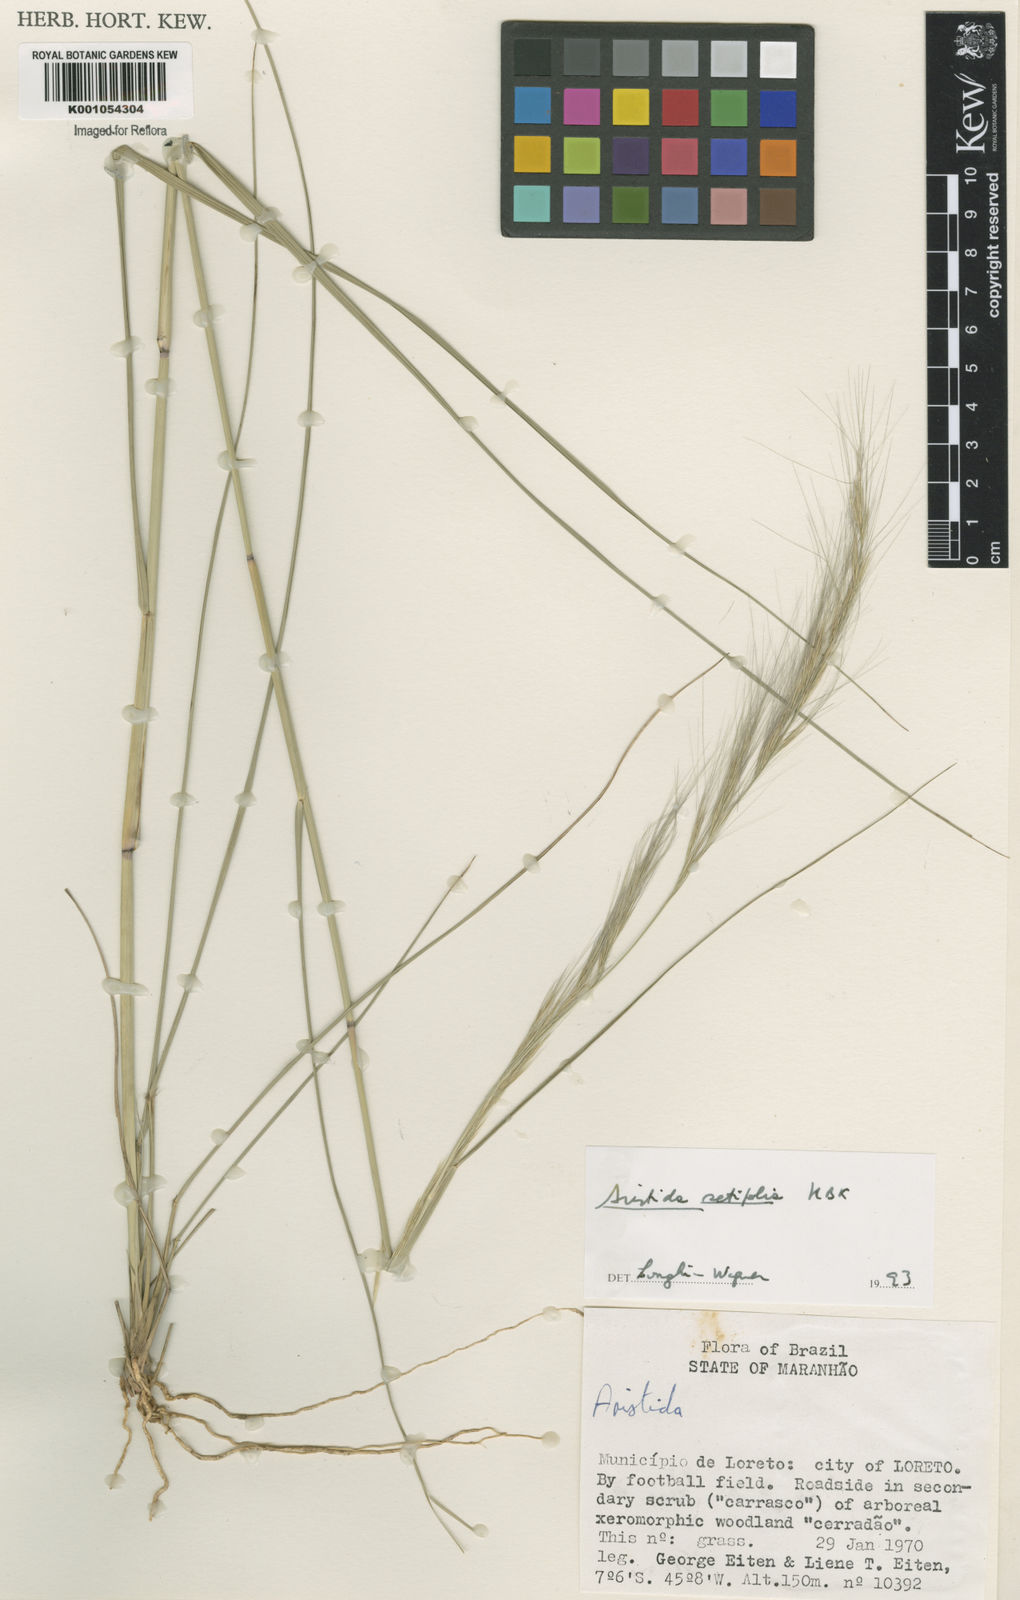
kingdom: Plantae
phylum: Tracheophyta
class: Liliopsida
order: Poales
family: Poaceae
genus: Aristida
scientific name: Aristida setifolia
